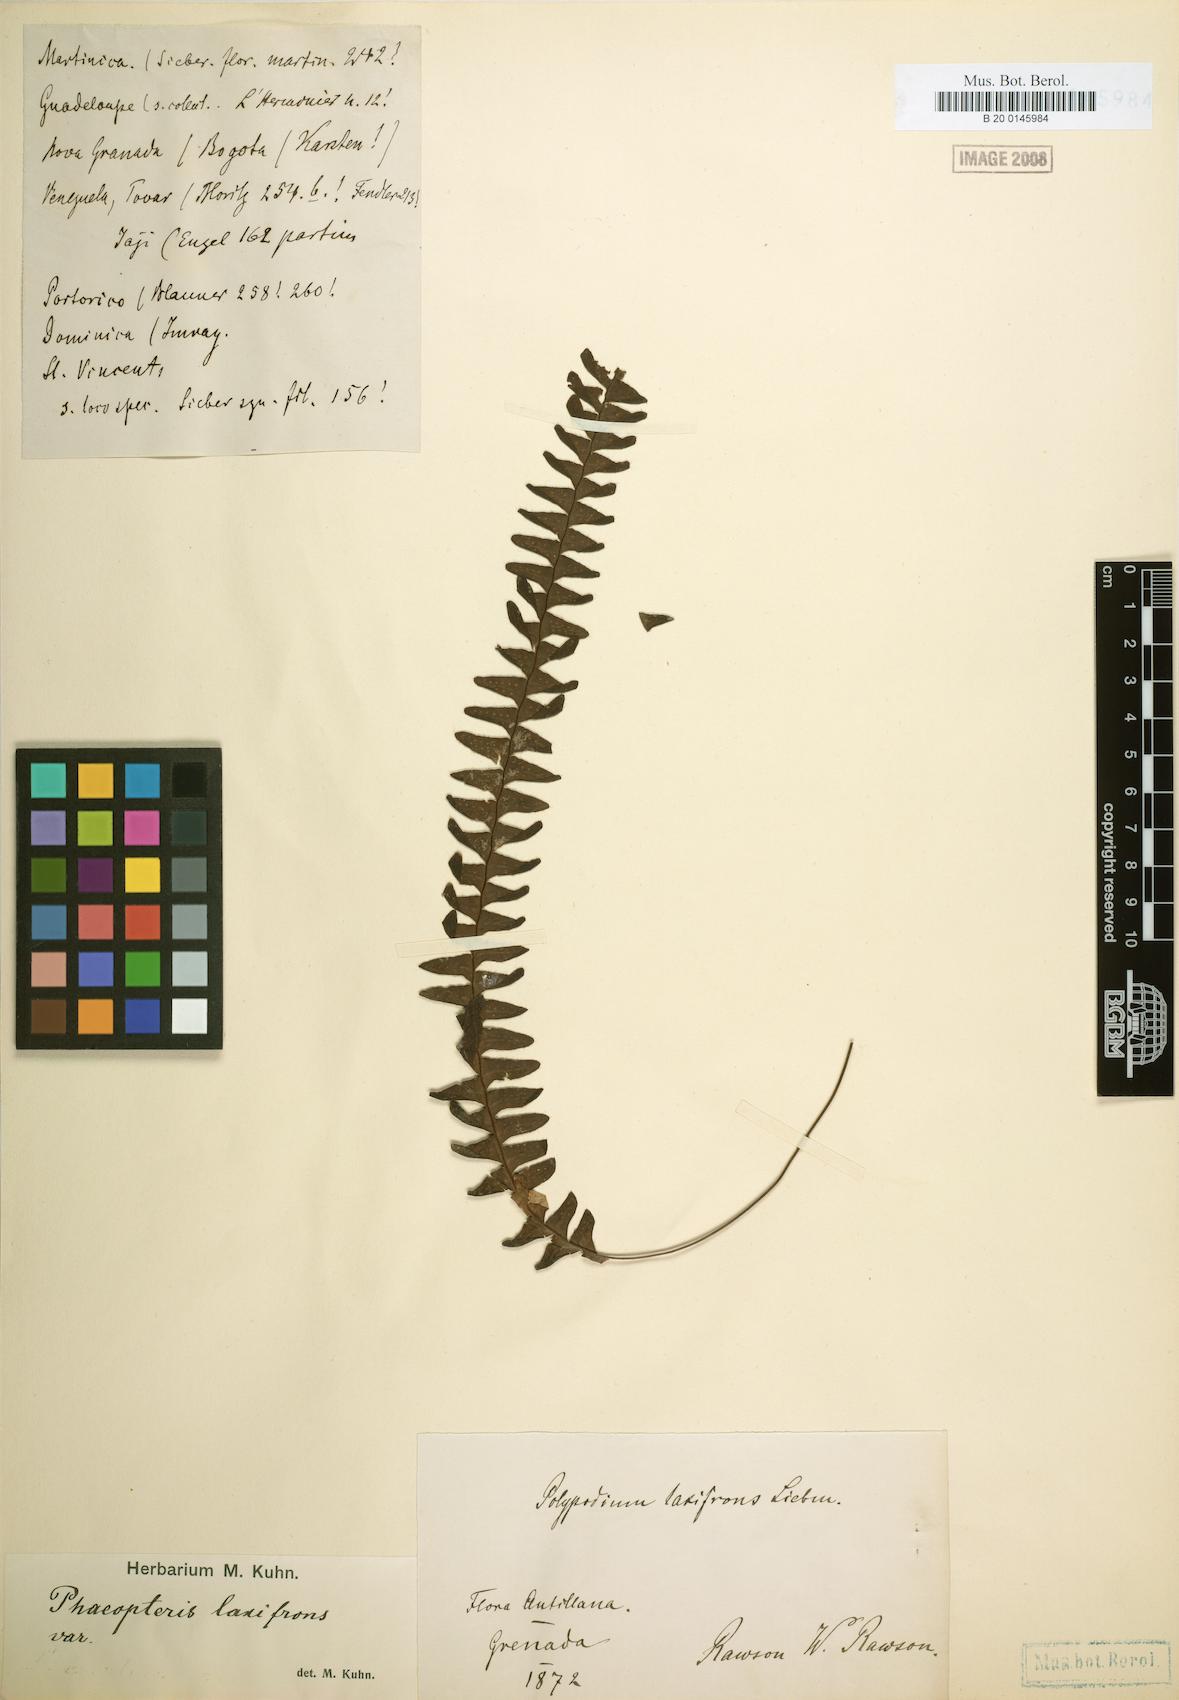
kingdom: Plantae
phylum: Tracheophyta
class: Polypodiopsida
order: Polypodiales
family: Polypodiaceae
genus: Terpsichore
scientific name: Terpsichore asplenifolia
